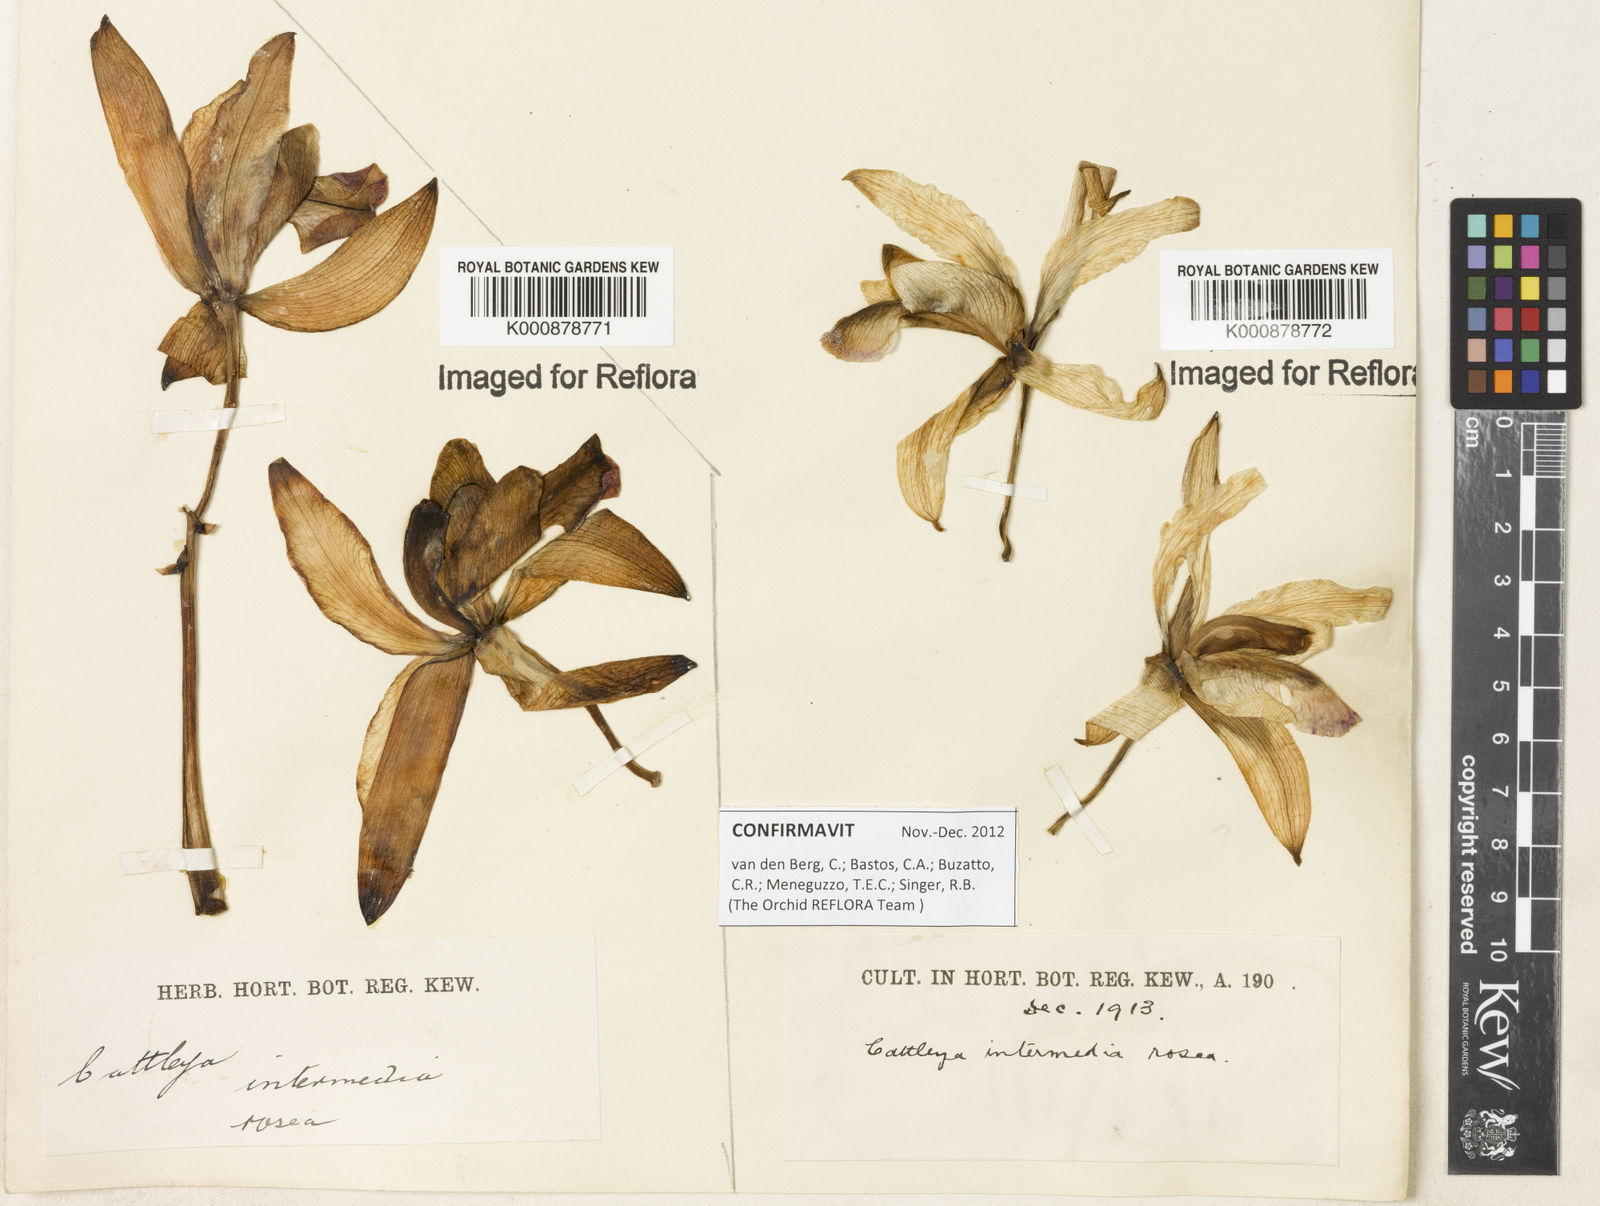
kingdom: Plantae
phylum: Tracheophyta
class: Liliopsida
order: Asparagales
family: Orchidaceae
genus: Cattleya
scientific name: Cattleya intermedia
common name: Intermediate cattleya
